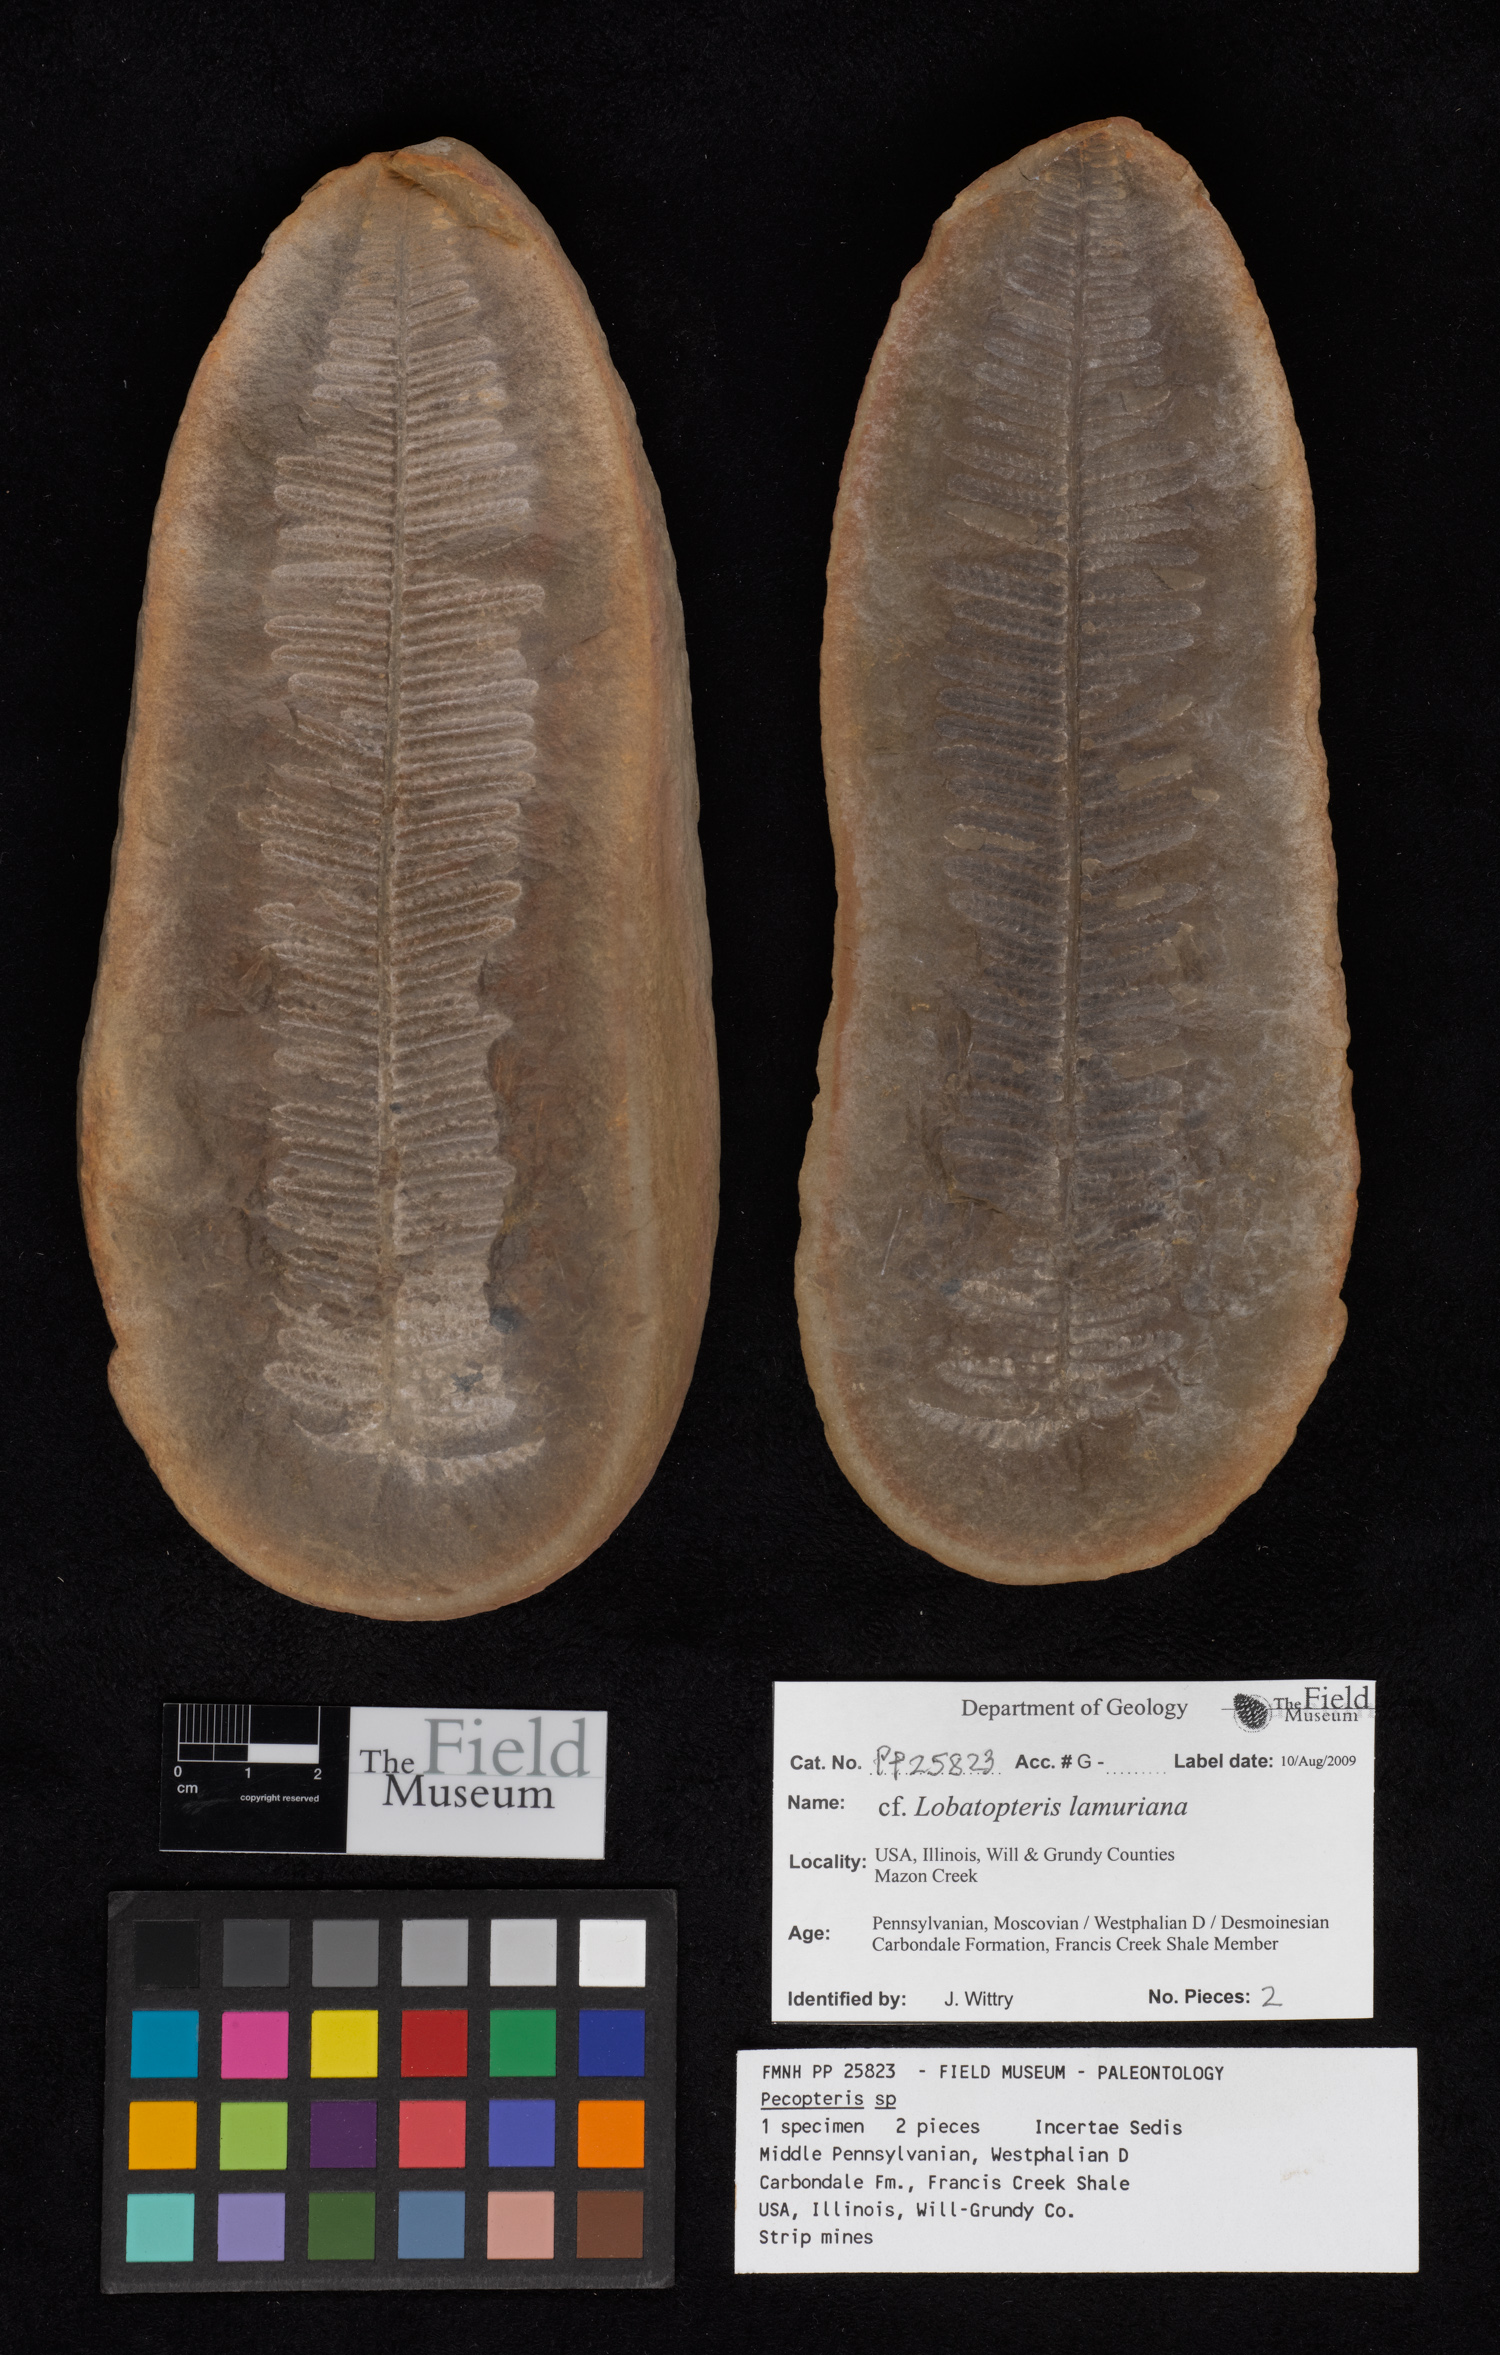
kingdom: Plantae
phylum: Tracheophyta
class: Polypodiopsida
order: Marattiales
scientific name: Marattiales
